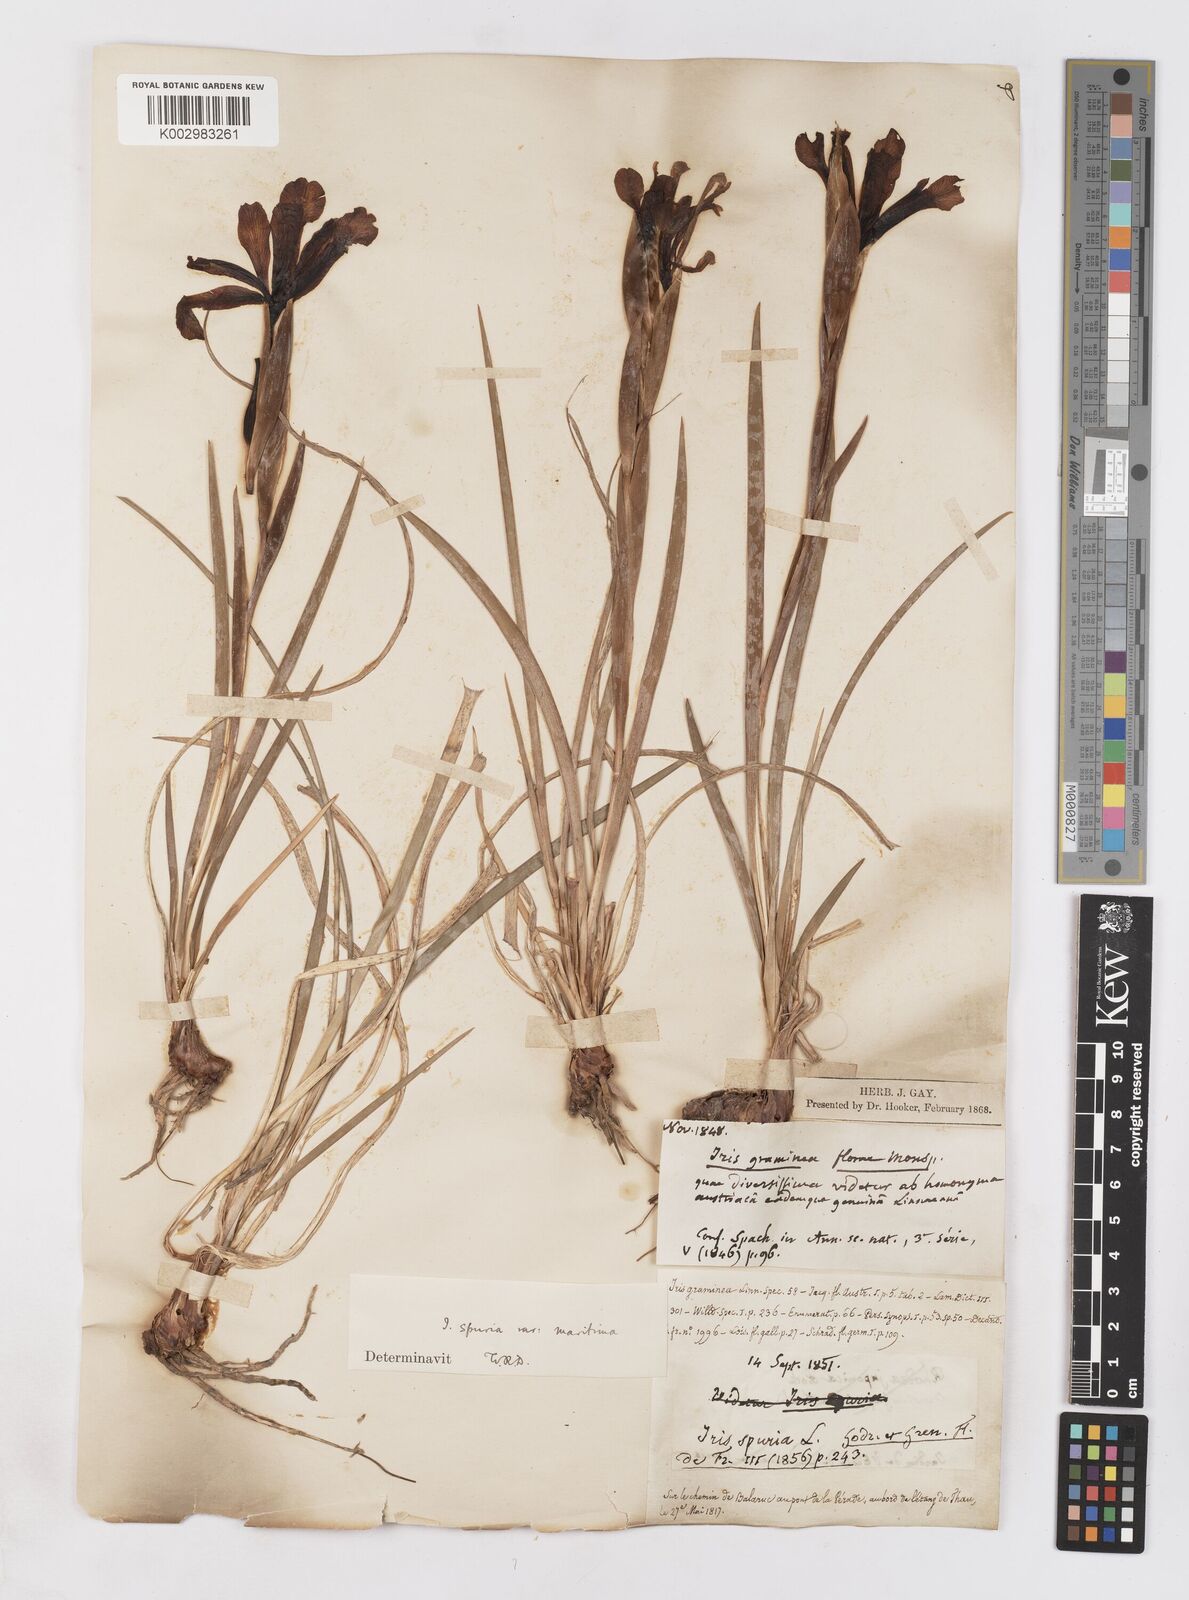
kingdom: Plantae
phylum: Tracheophyta
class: Liliopsida
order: Asparagales
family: Iridaceae
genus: Iris
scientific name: Iris spuria
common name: Blue iris
